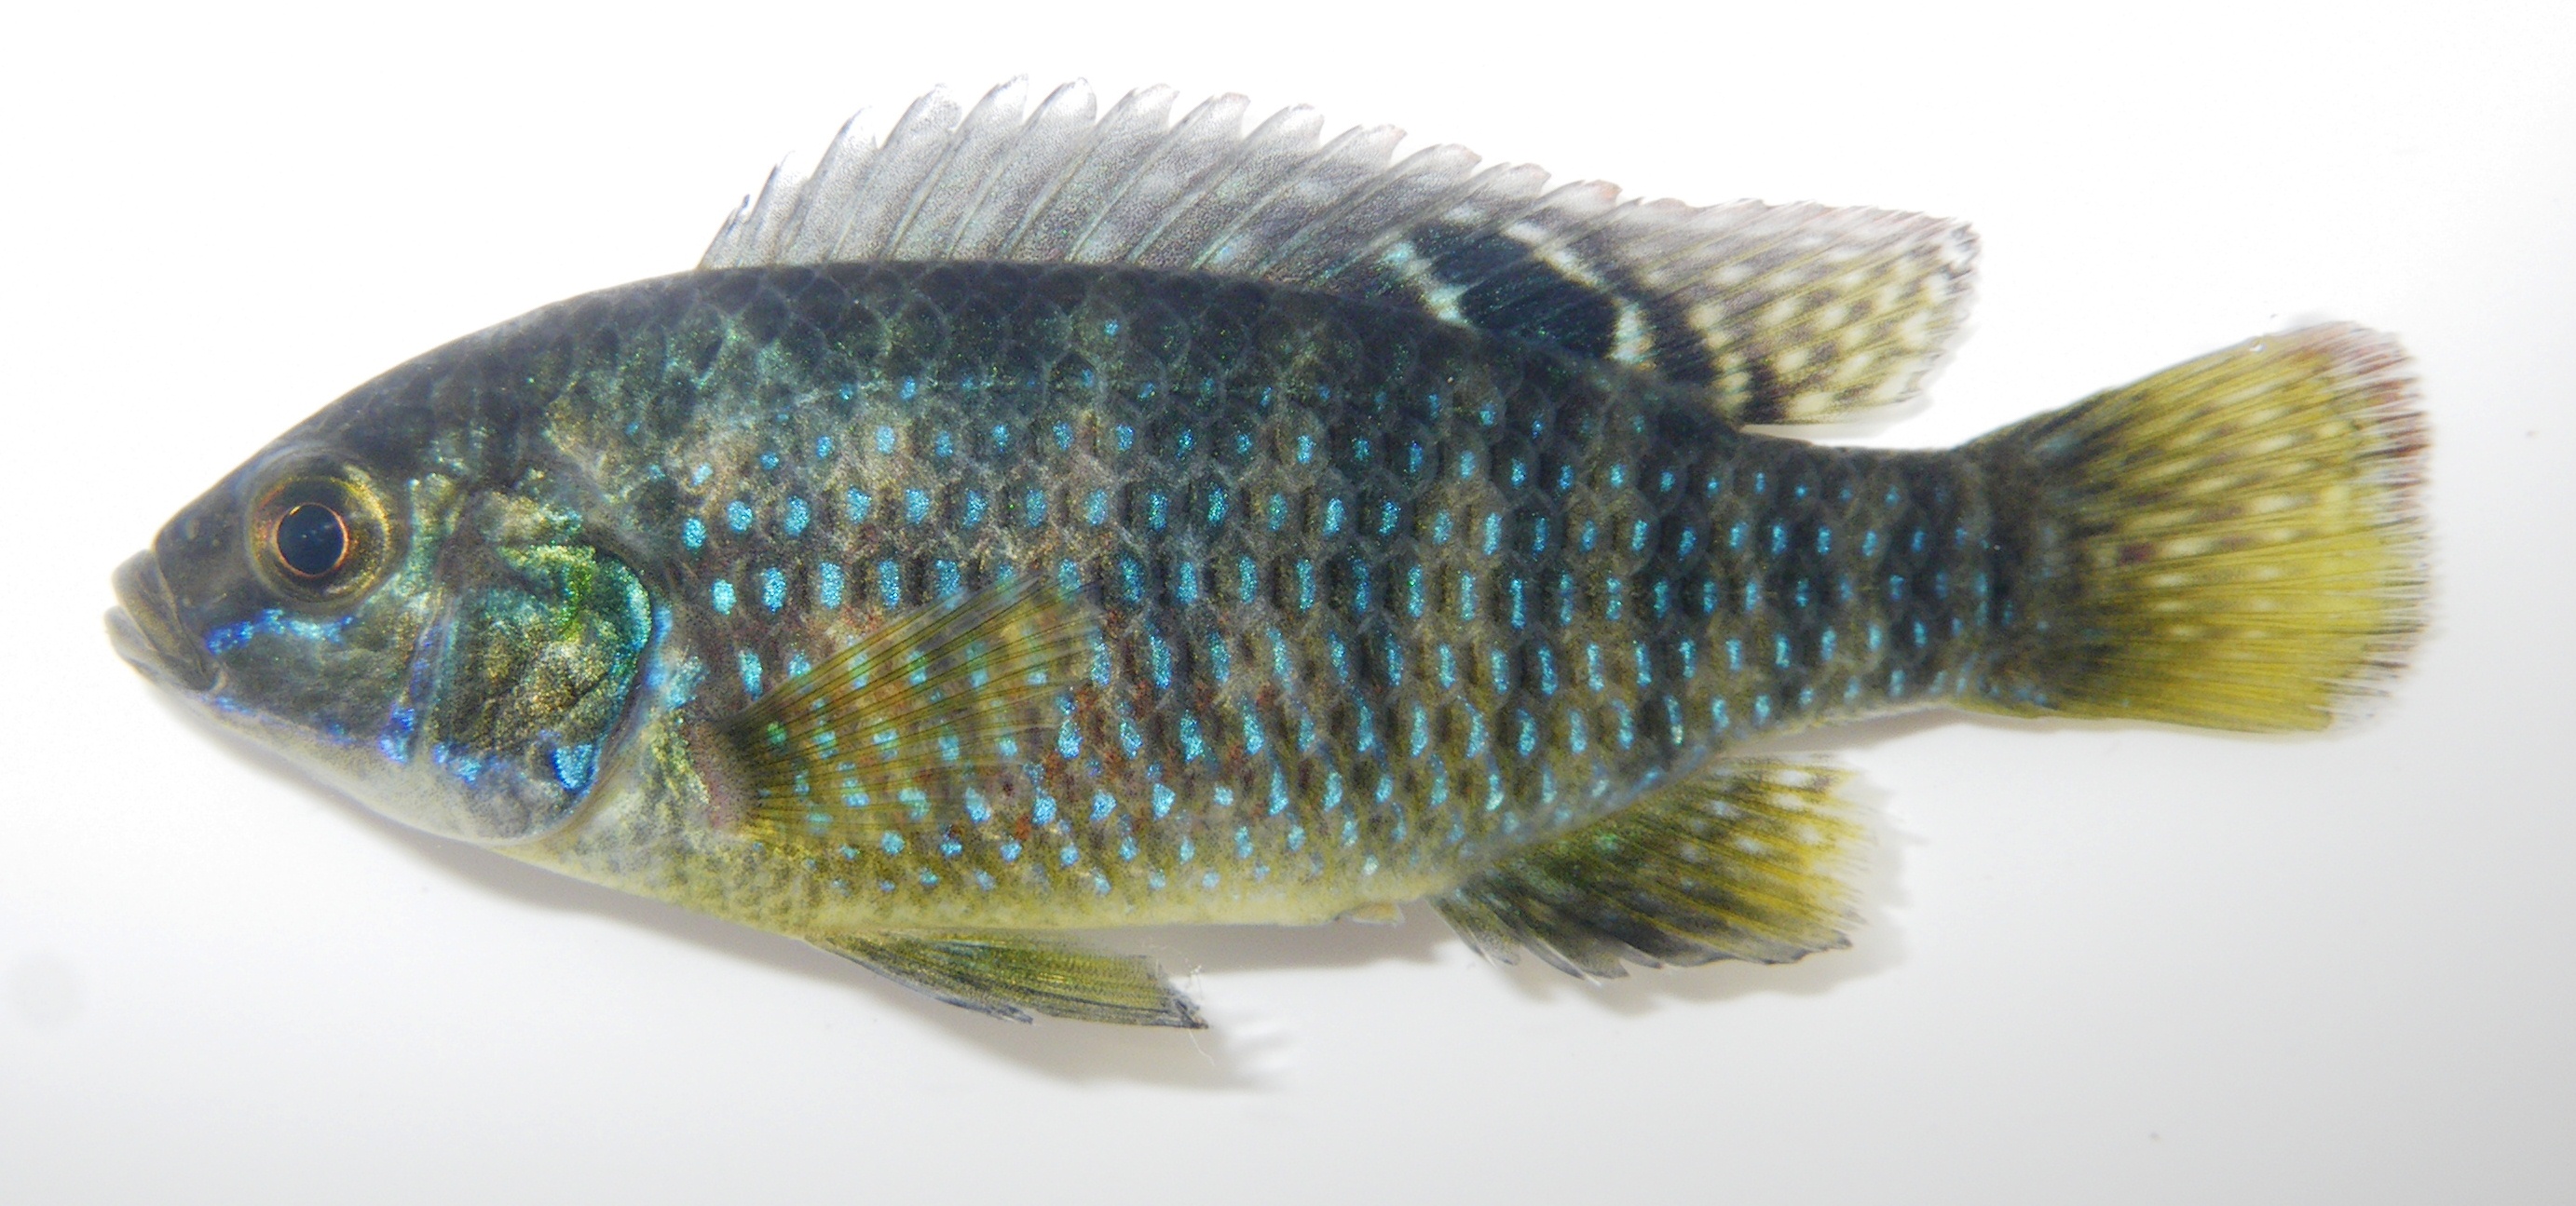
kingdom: Animalia
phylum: Chordata
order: Perciformes
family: Cichlidae
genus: Tilapia
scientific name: Tilapia ruweti
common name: Okavango tilapia
